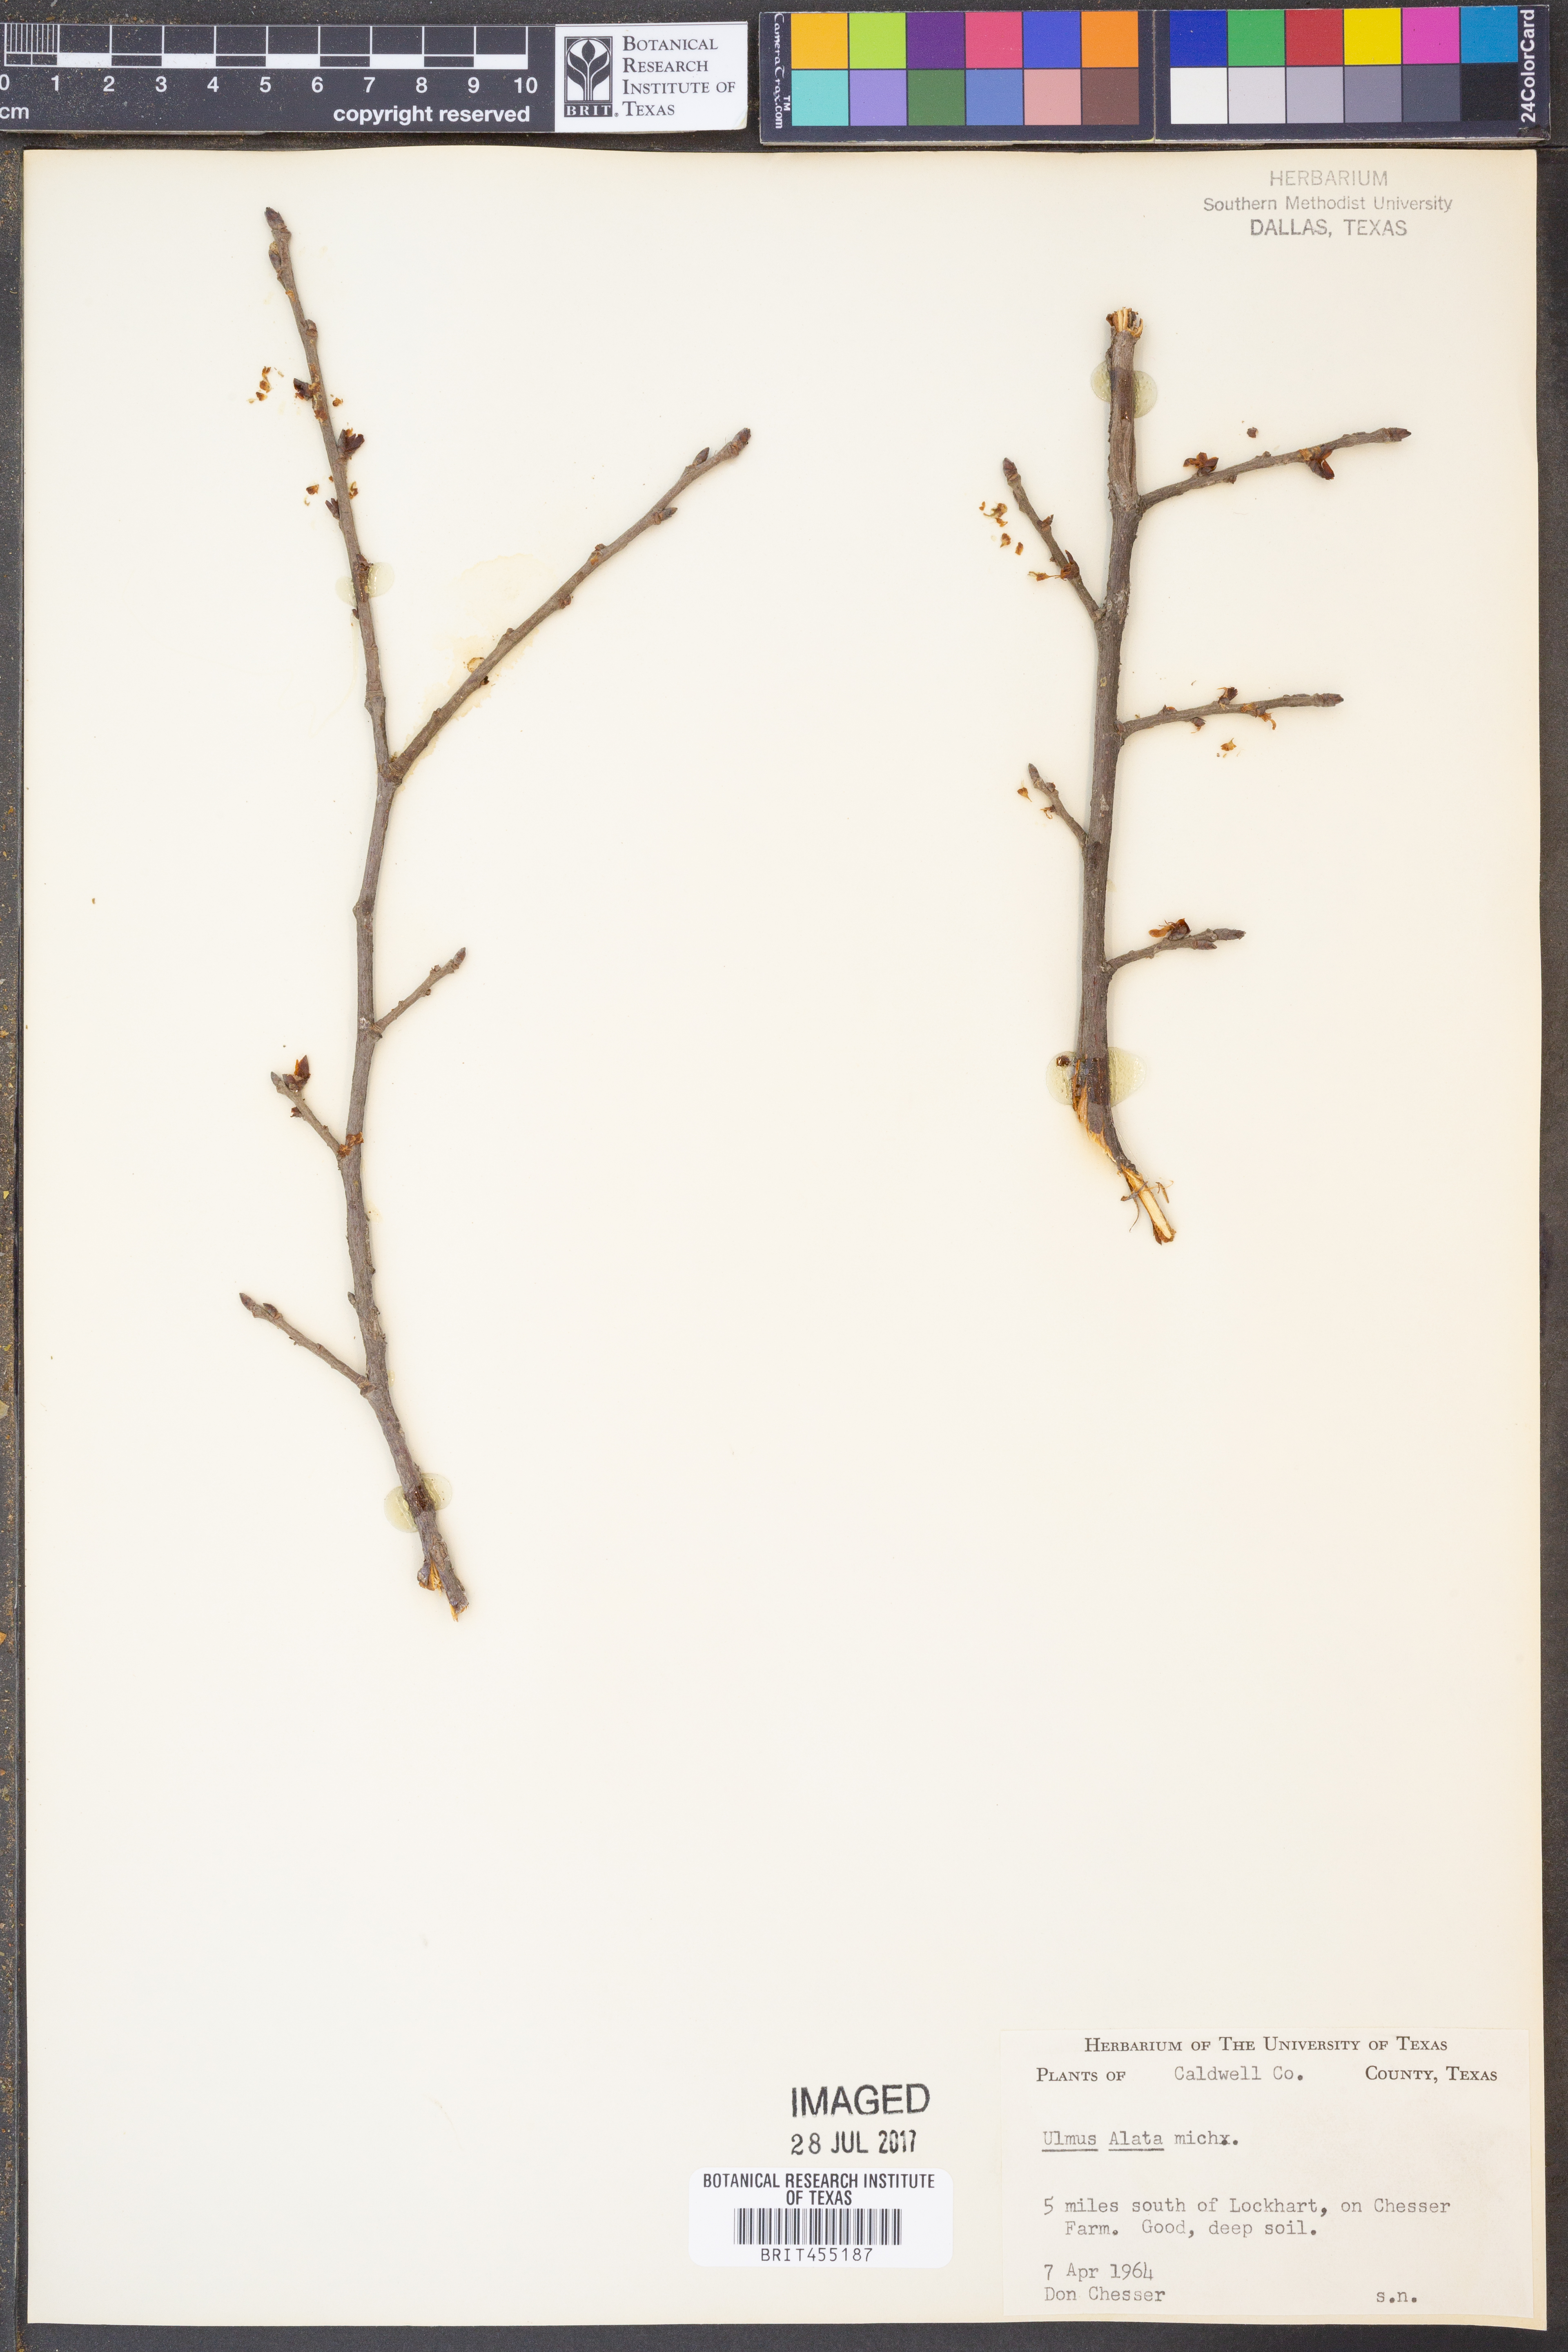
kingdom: Plantae
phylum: Tracheophyta
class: Magnoliopsida
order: Rosales
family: Ulmaceae
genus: Ulmus
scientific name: Ulmus alata
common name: Winged elm
